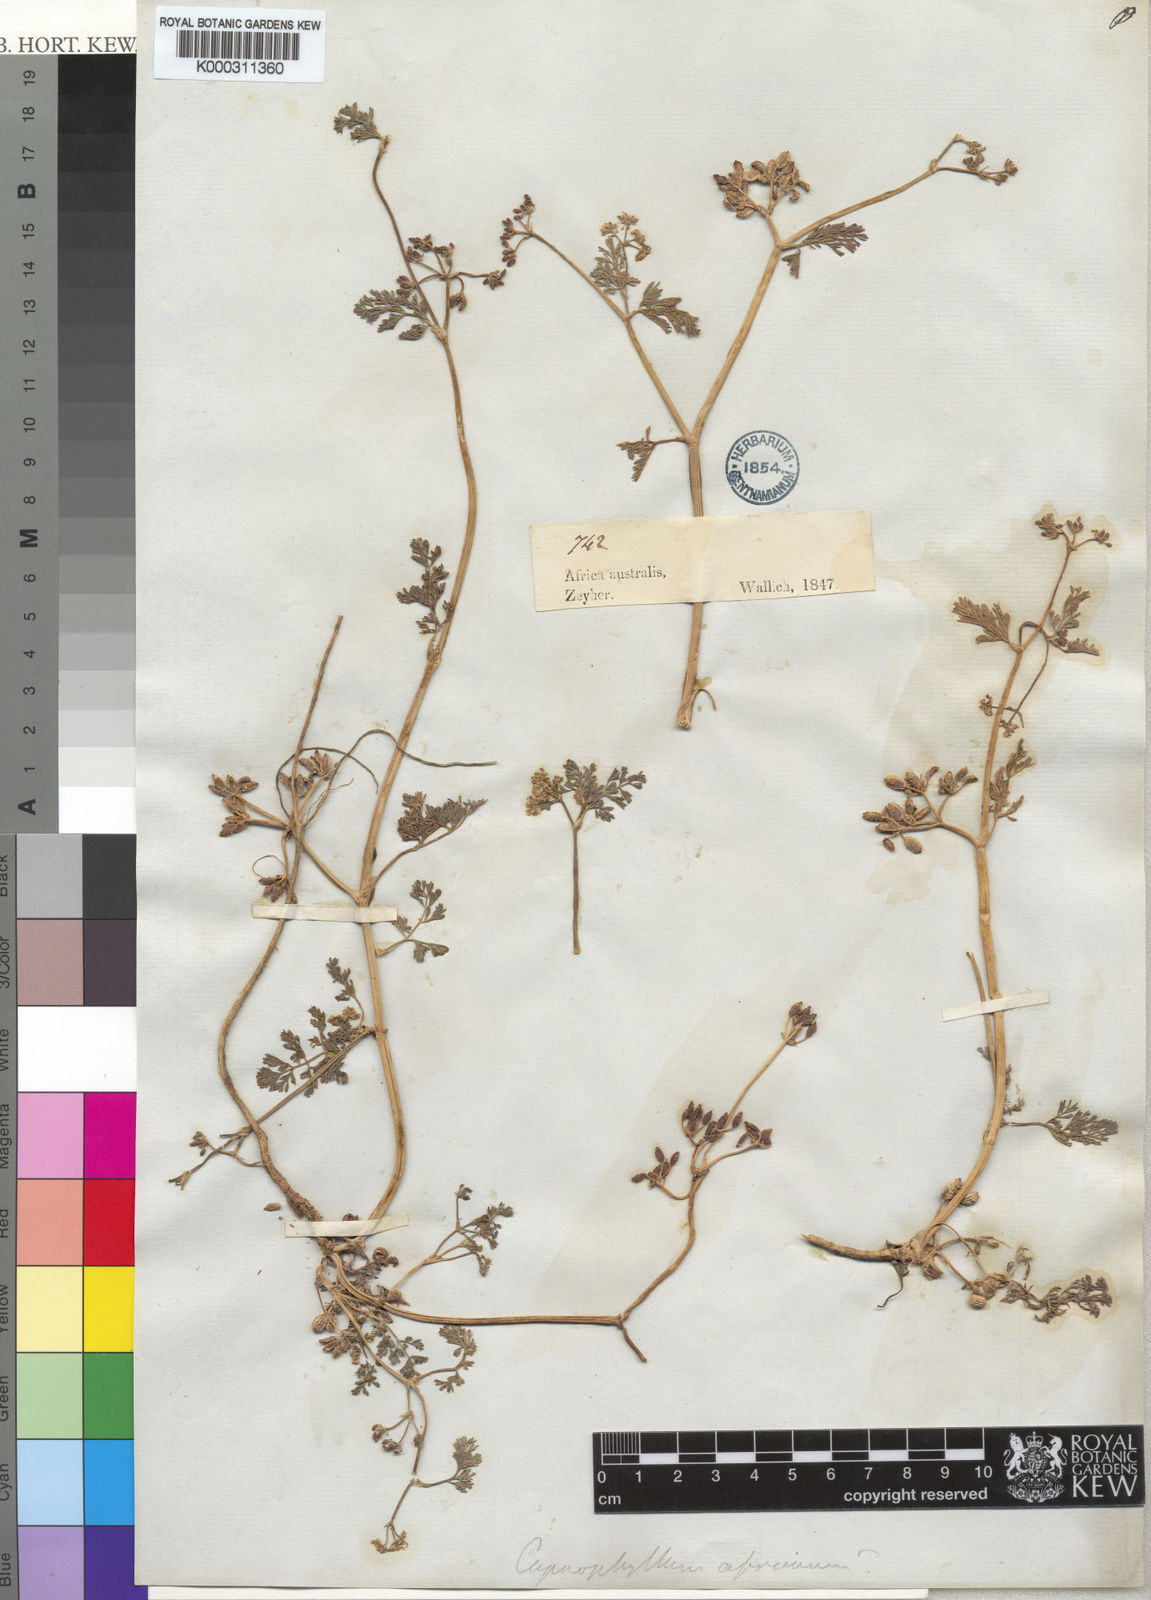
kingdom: Plantae
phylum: Tracheophyta
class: Magnoliopsida
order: Apiales
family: Apiaceae
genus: Capnophyllum
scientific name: Capnophyllum africanum
